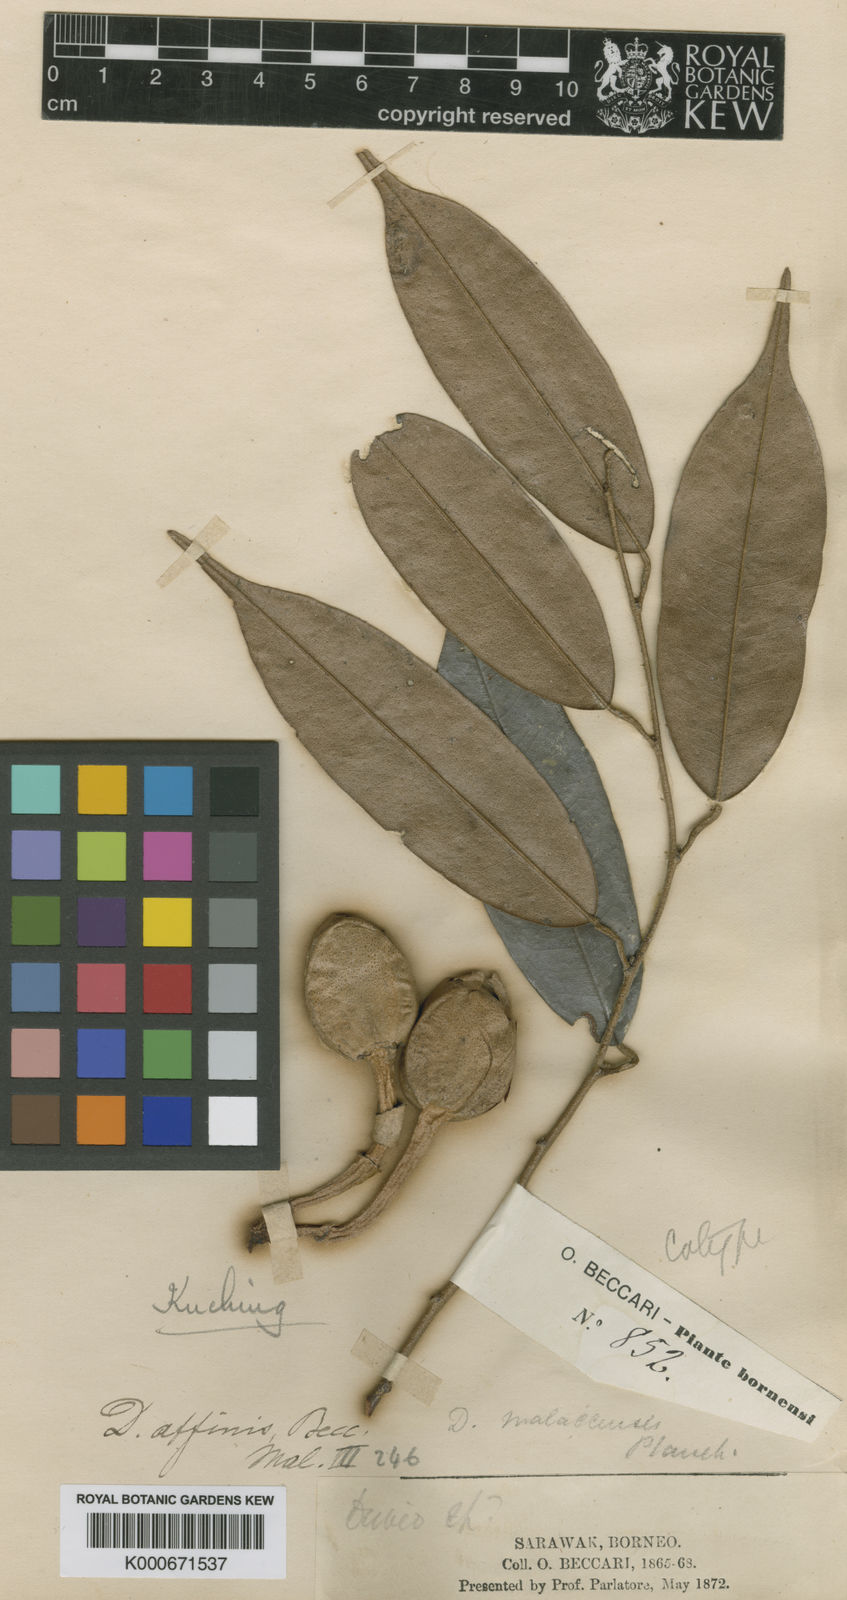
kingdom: Plantae
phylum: Tracheophyta
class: Magnoliopsida
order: Malvales
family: Malvaceae
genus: Durio
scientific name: Durio affinis
